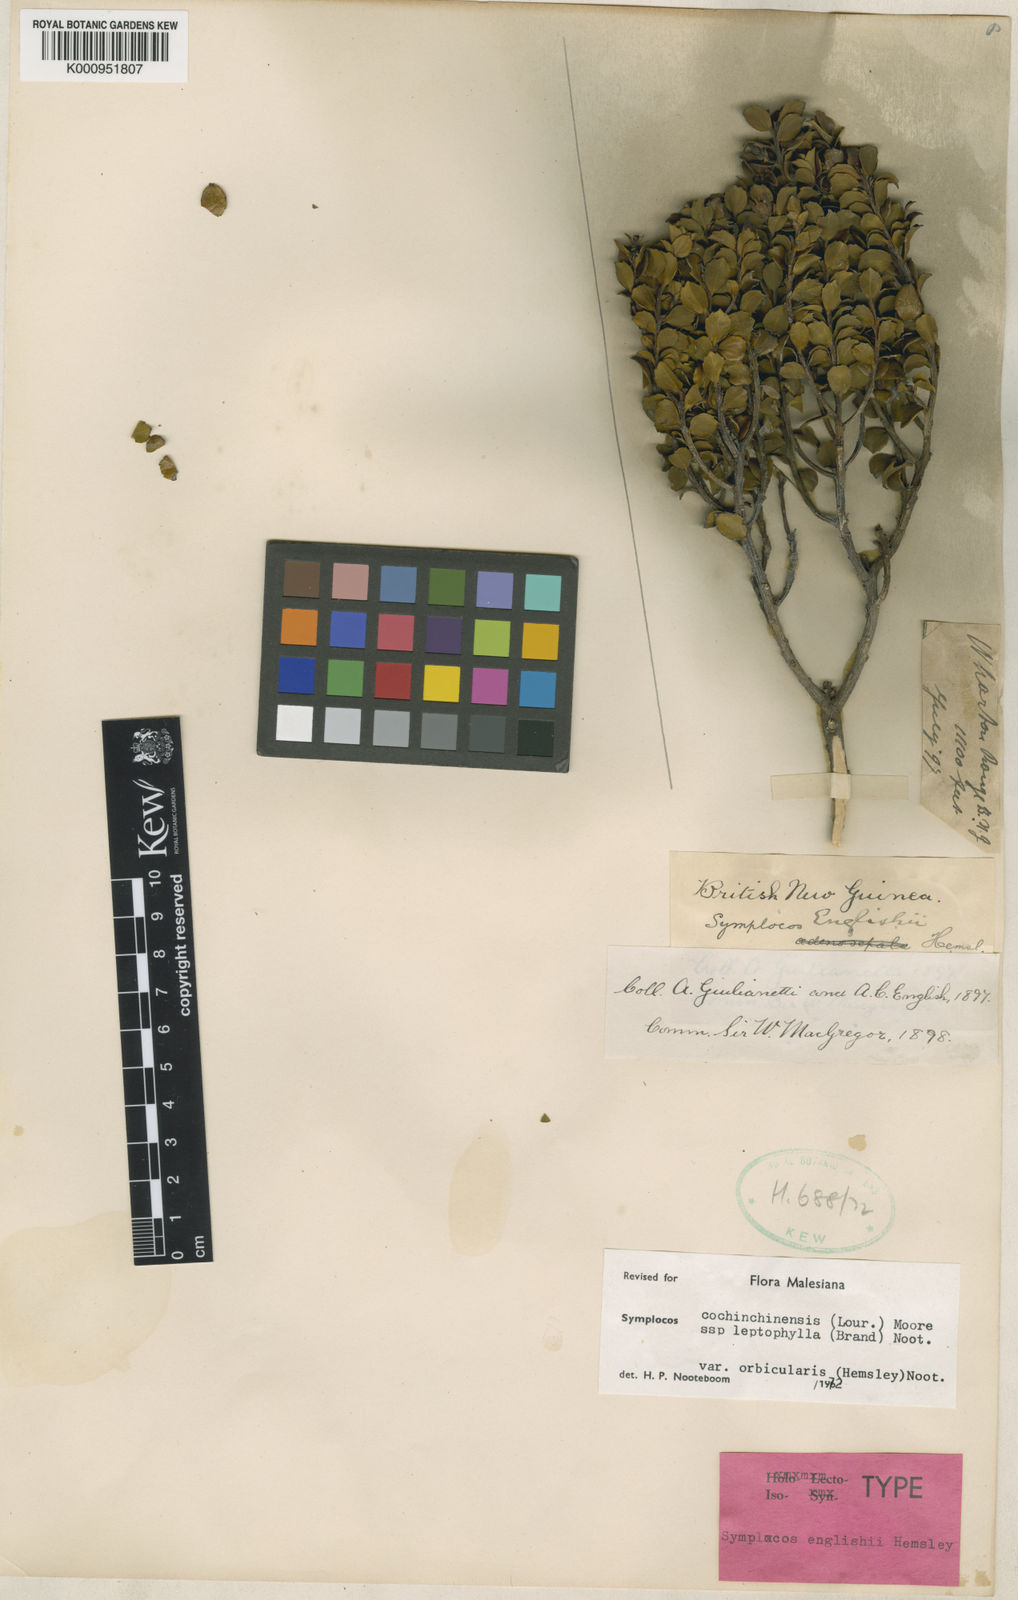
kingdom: Plantae
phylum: Tracheophyta
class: Magnoliopsida
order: Ericales
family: Symplocaceae
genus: Symplocos
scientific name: Symplocos cochinchinensis
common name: Buff hazelwood
